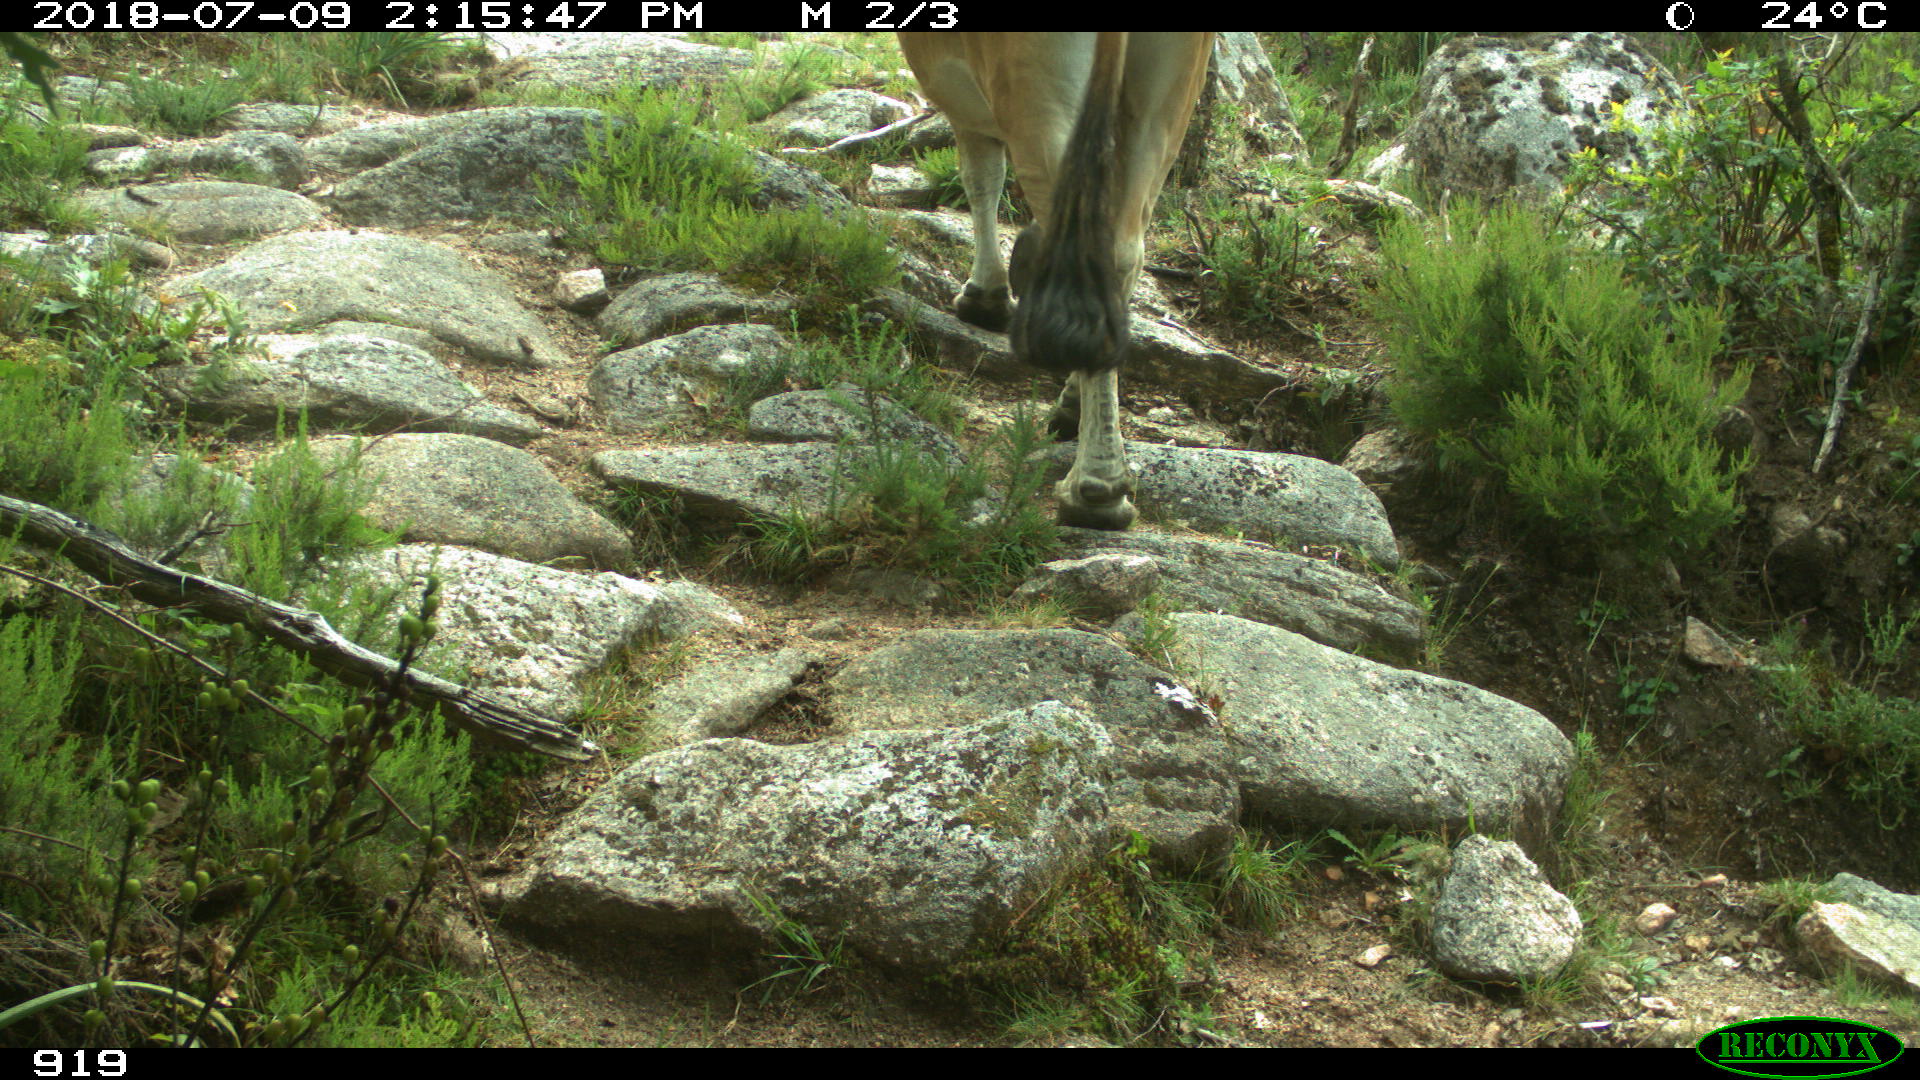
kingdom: Animalia
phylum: Chordata
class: Mammalia
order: Artiodactyla
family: Bovidae
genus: Bos
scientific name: Bos taurus
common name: Domesticated cattle
